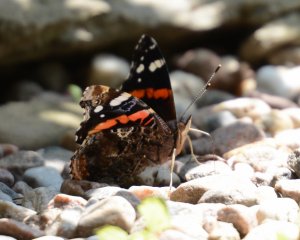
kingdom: Animalia
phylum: Arthropoda
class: Insecta
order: Lepidoptera
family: Nymphalidae
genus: Vanessa
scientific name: Vanessa atalanta
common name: Red Admiral
